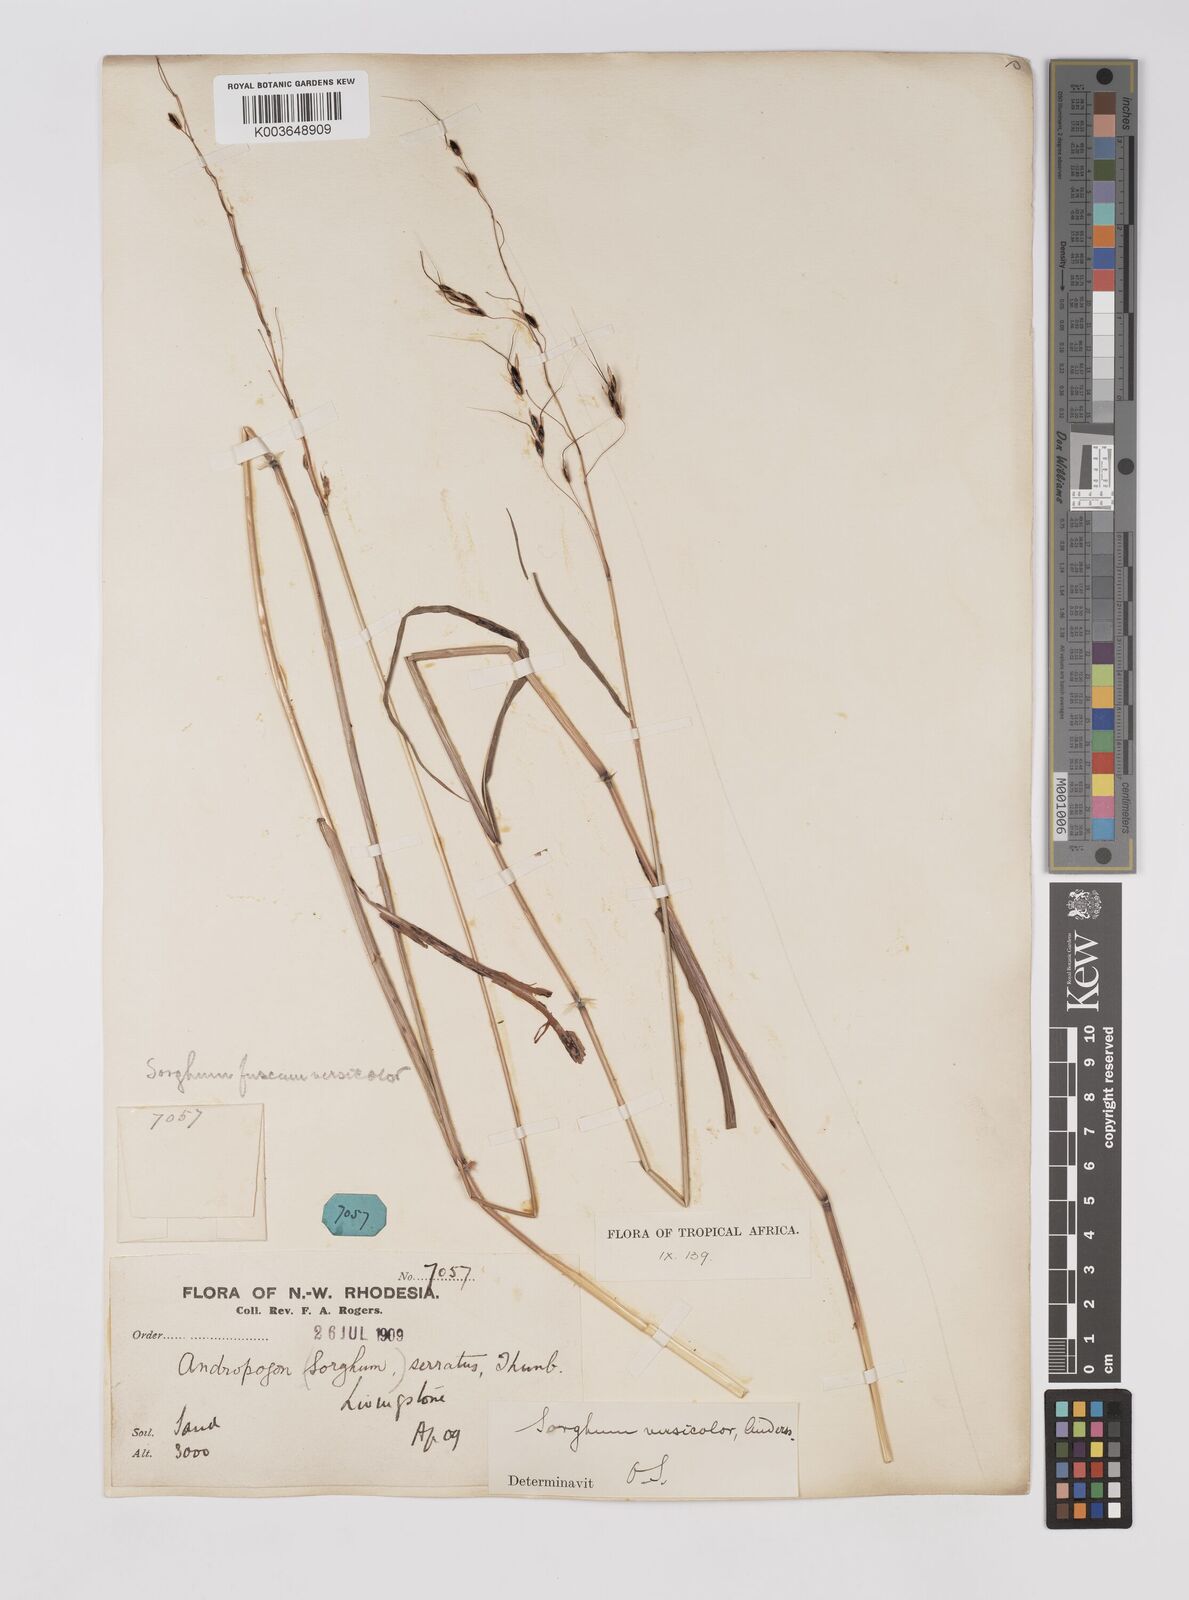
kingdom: Plantae
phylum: Tracheophyta
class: Liliopsida
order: Poales
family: Poaceae
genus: Sarga
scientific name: Sarga versicolor
